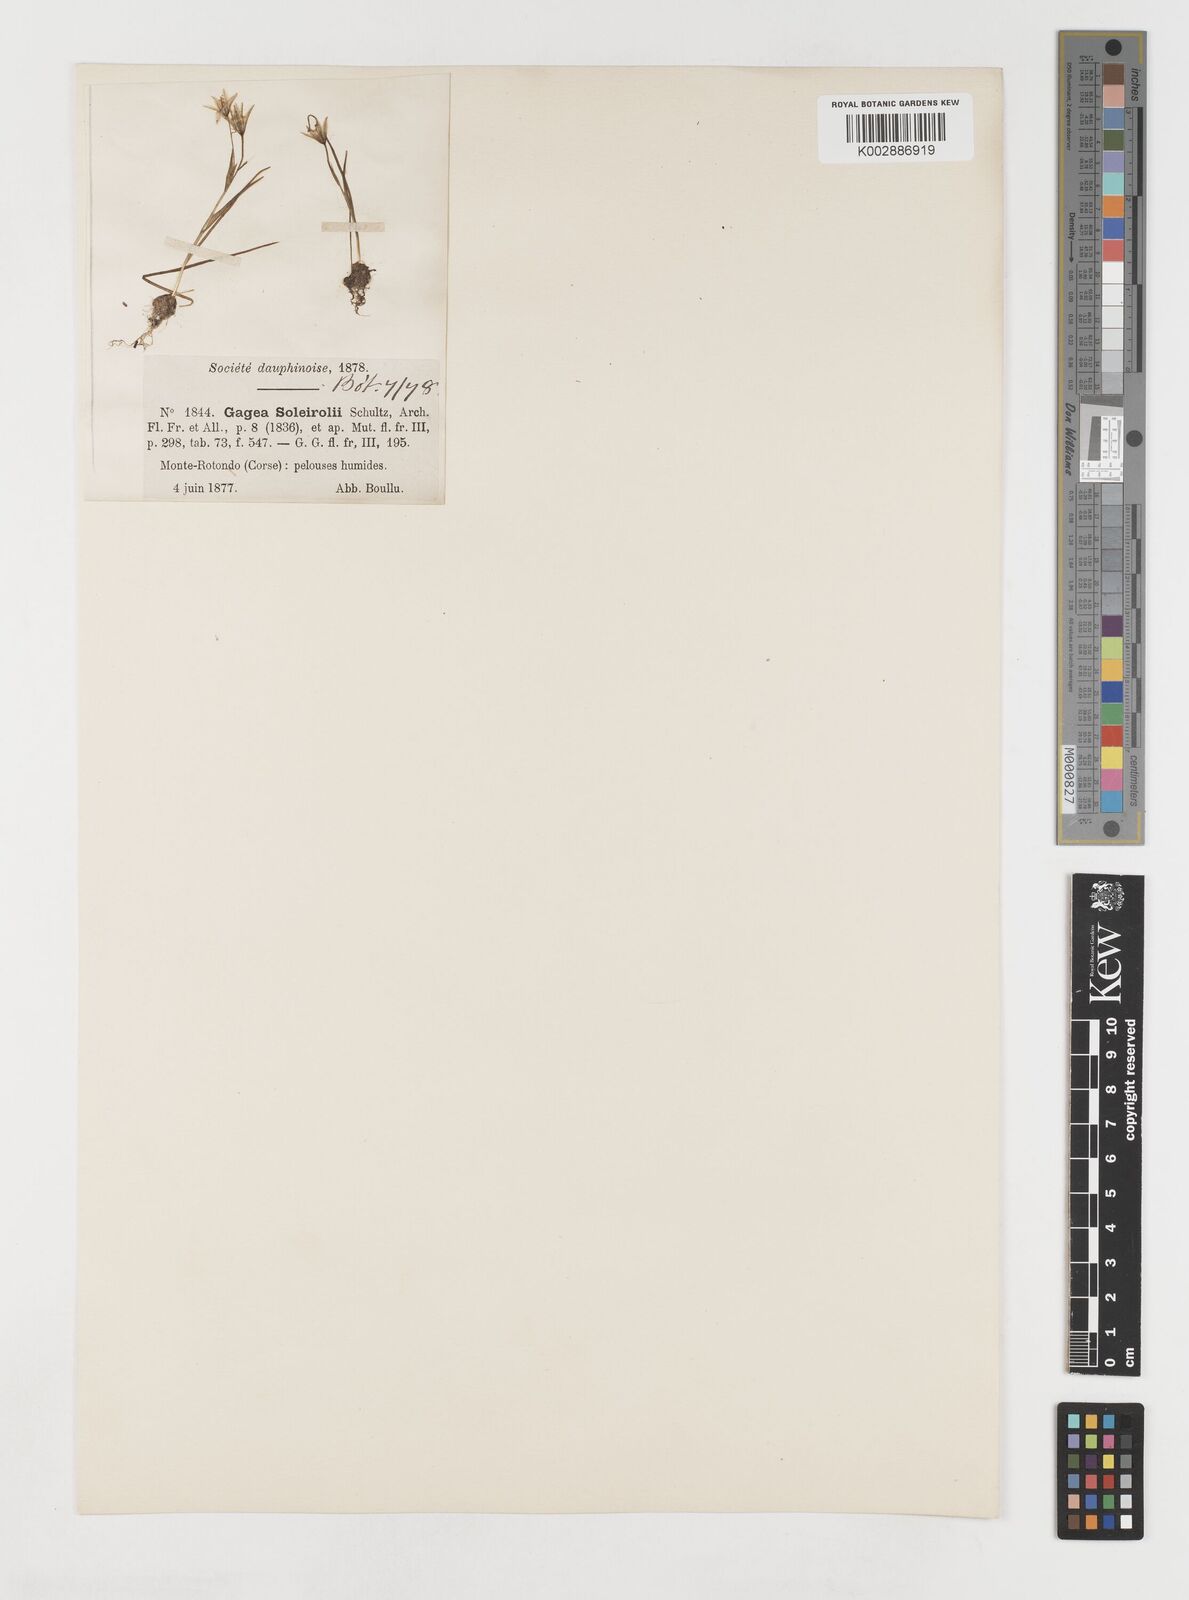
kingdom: Plantae
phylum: Tracheophyta
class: Liliopsida
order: Liliales
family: Liliaceae
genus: Gagea
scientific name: Gagea soleirolii
